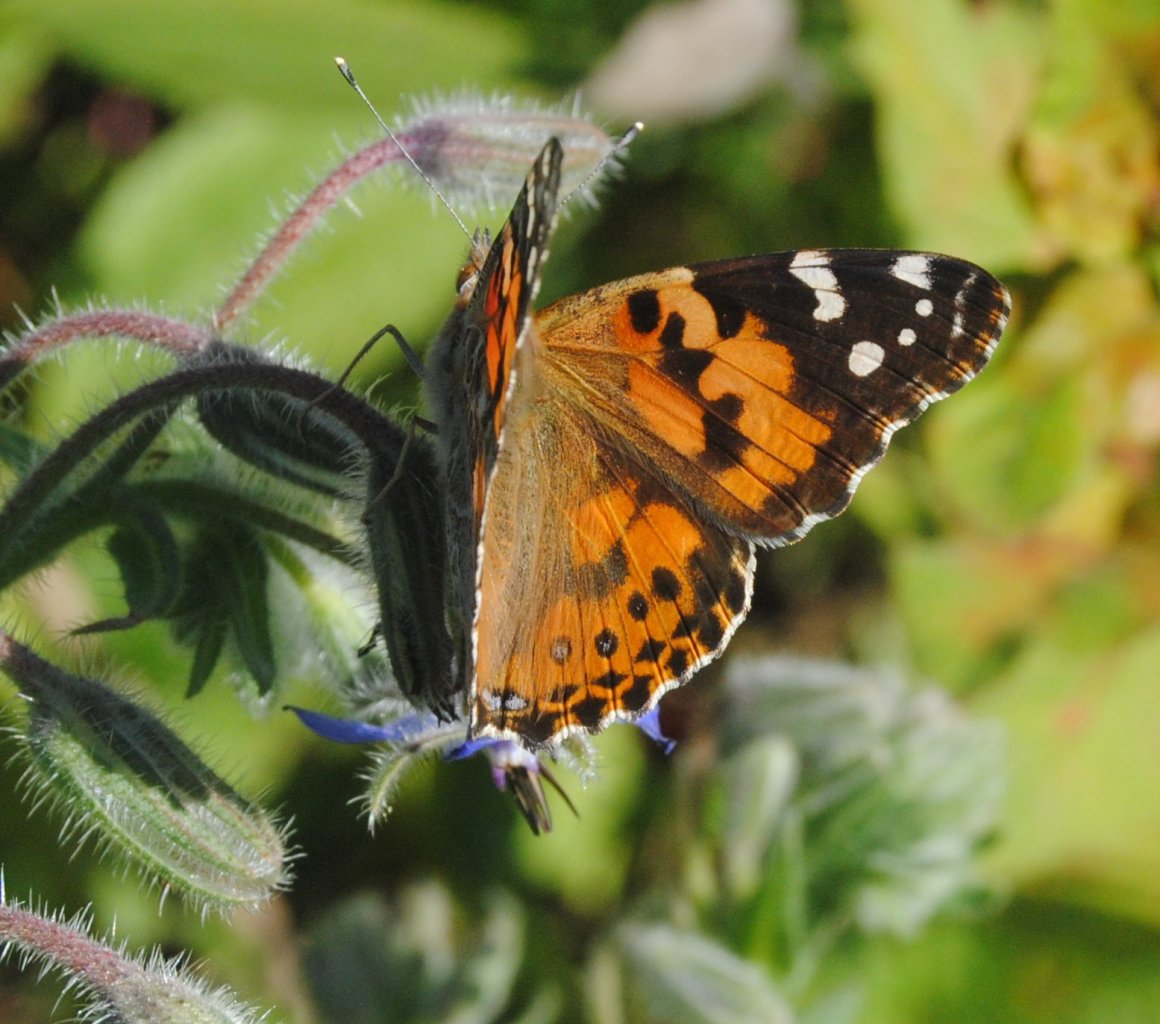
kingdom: Animalia
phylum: Arthropoda
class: Insecta
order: Lepidoptera
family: Nymphalidae
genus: Vanessa
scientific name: Vanessa cardui
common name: Painted Lady
